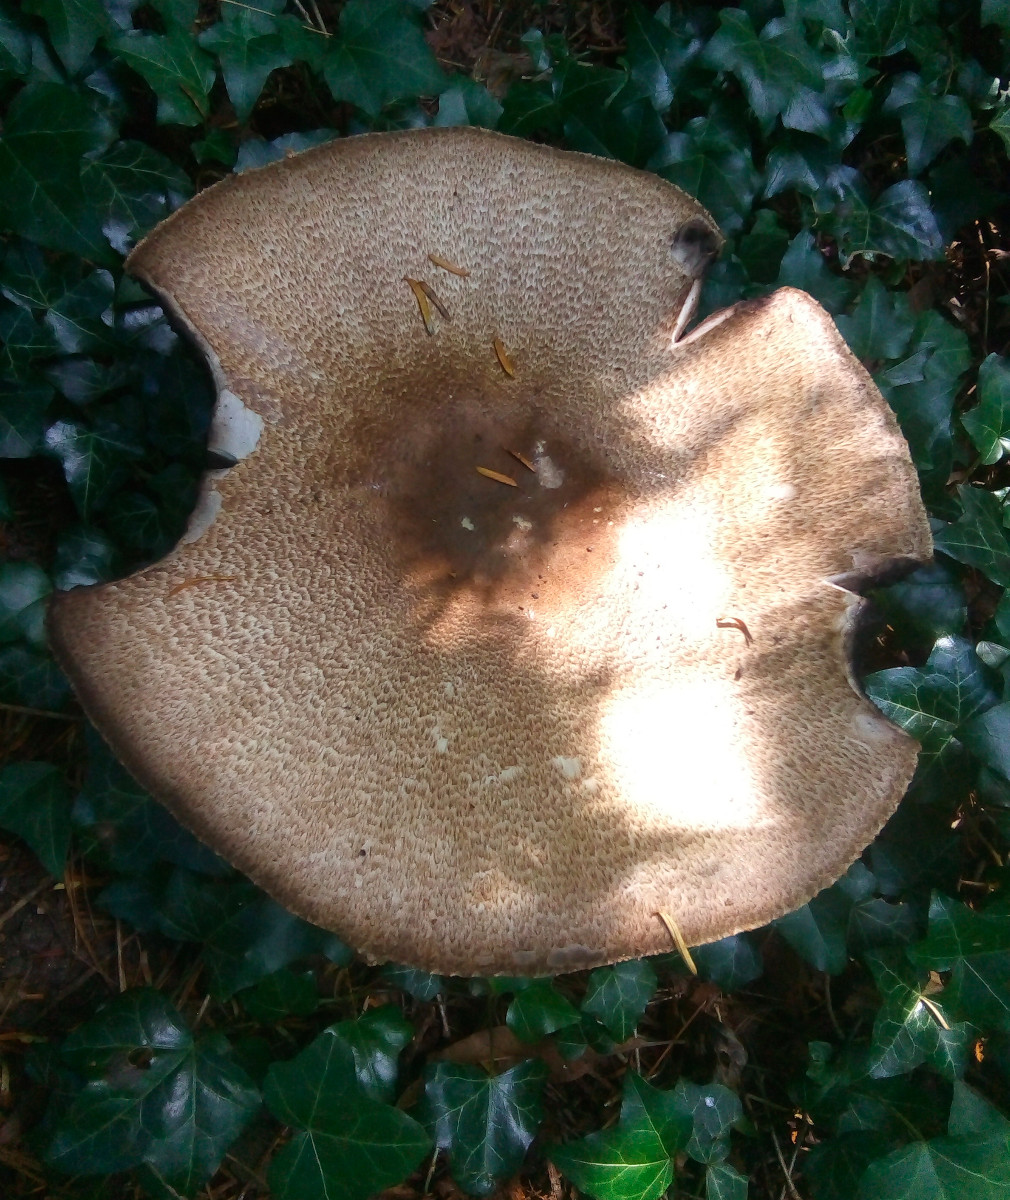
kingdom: Fungi
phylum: Basidiomycota
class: Agaricomycetes
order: Agaricales
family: Agaricaceae
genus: Agaricus
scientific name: Agaricus augustus
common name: prægtig champignon
